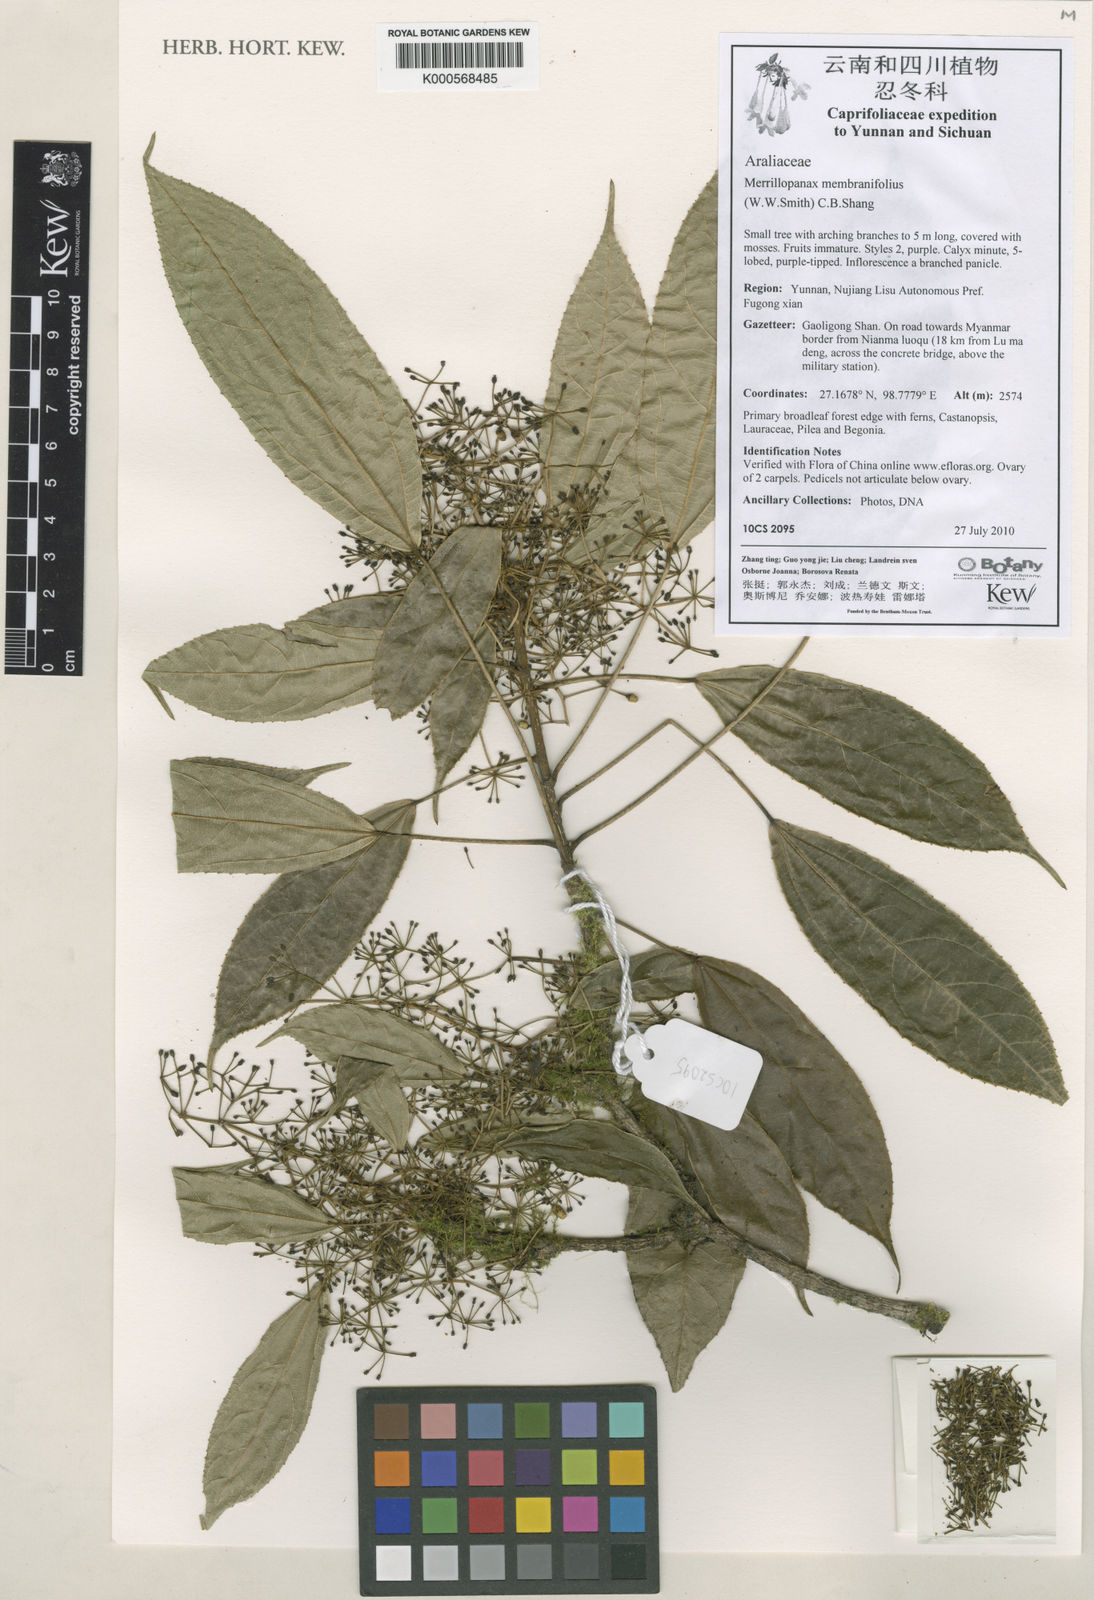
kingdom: Plantae
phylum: Tracheophyta
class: Magnoliopsida
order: Apiales
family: Araliaceae
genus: Merrilliopanax
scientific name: Merrilliopanax membranifolius
